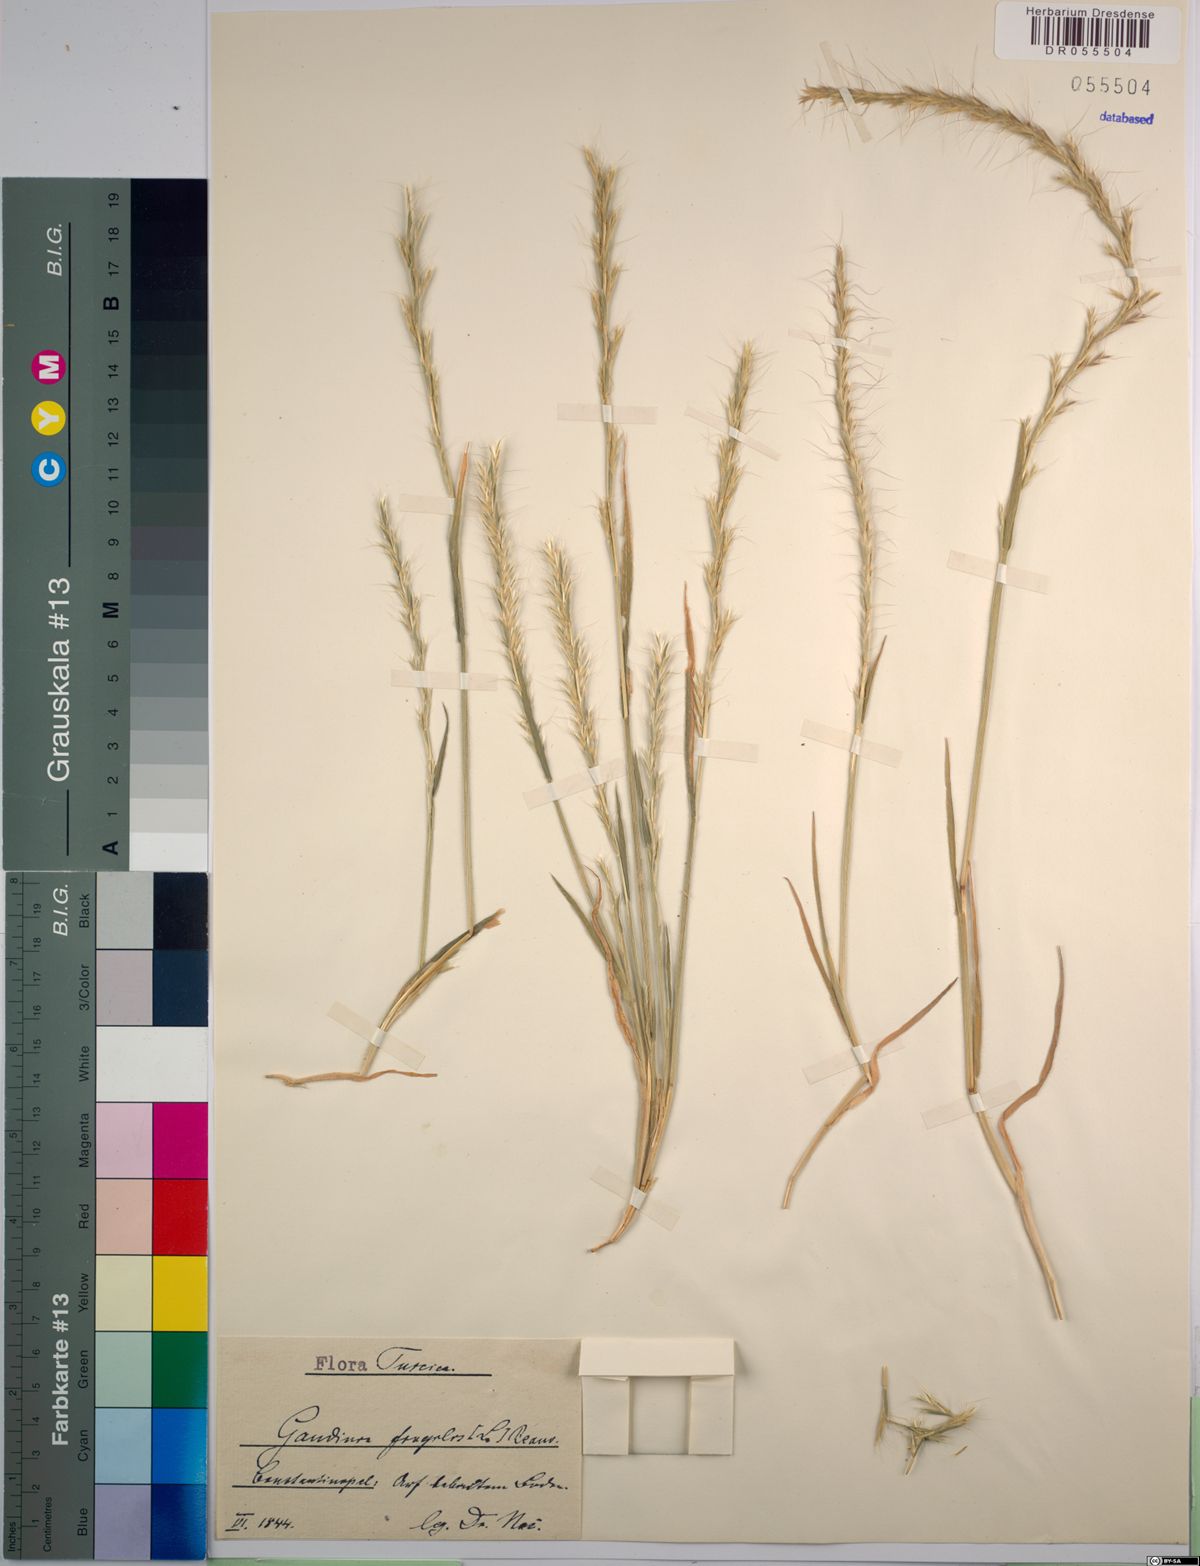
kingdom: Plantae
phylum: Tracheophyta
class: Liliopsida
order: Poales
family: Poaceae
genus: Gaudinia
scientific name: Gaudinia fragilis
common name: French oat-grass
